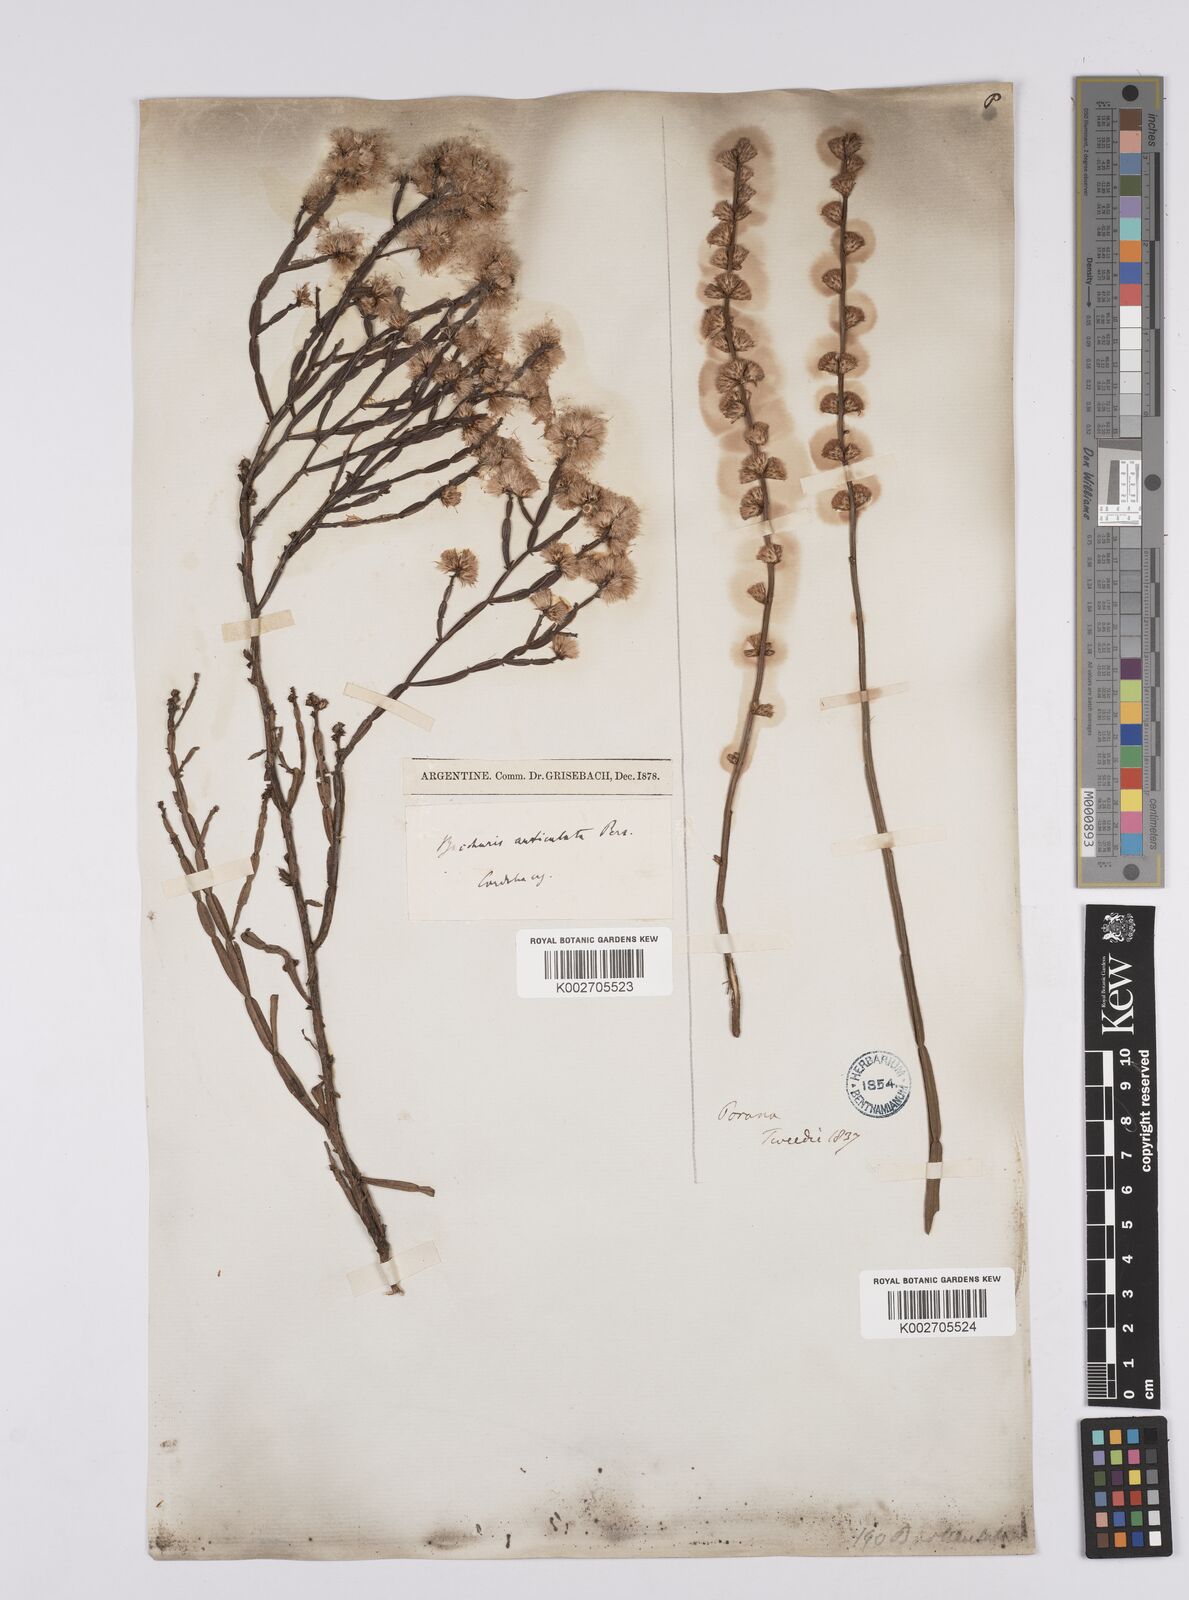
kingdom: Plantae
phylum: Tracheophyta
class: Magnoliopsida
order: Asterales
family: Asteraceae
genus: Baccharis
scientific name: Baccharis articulata
